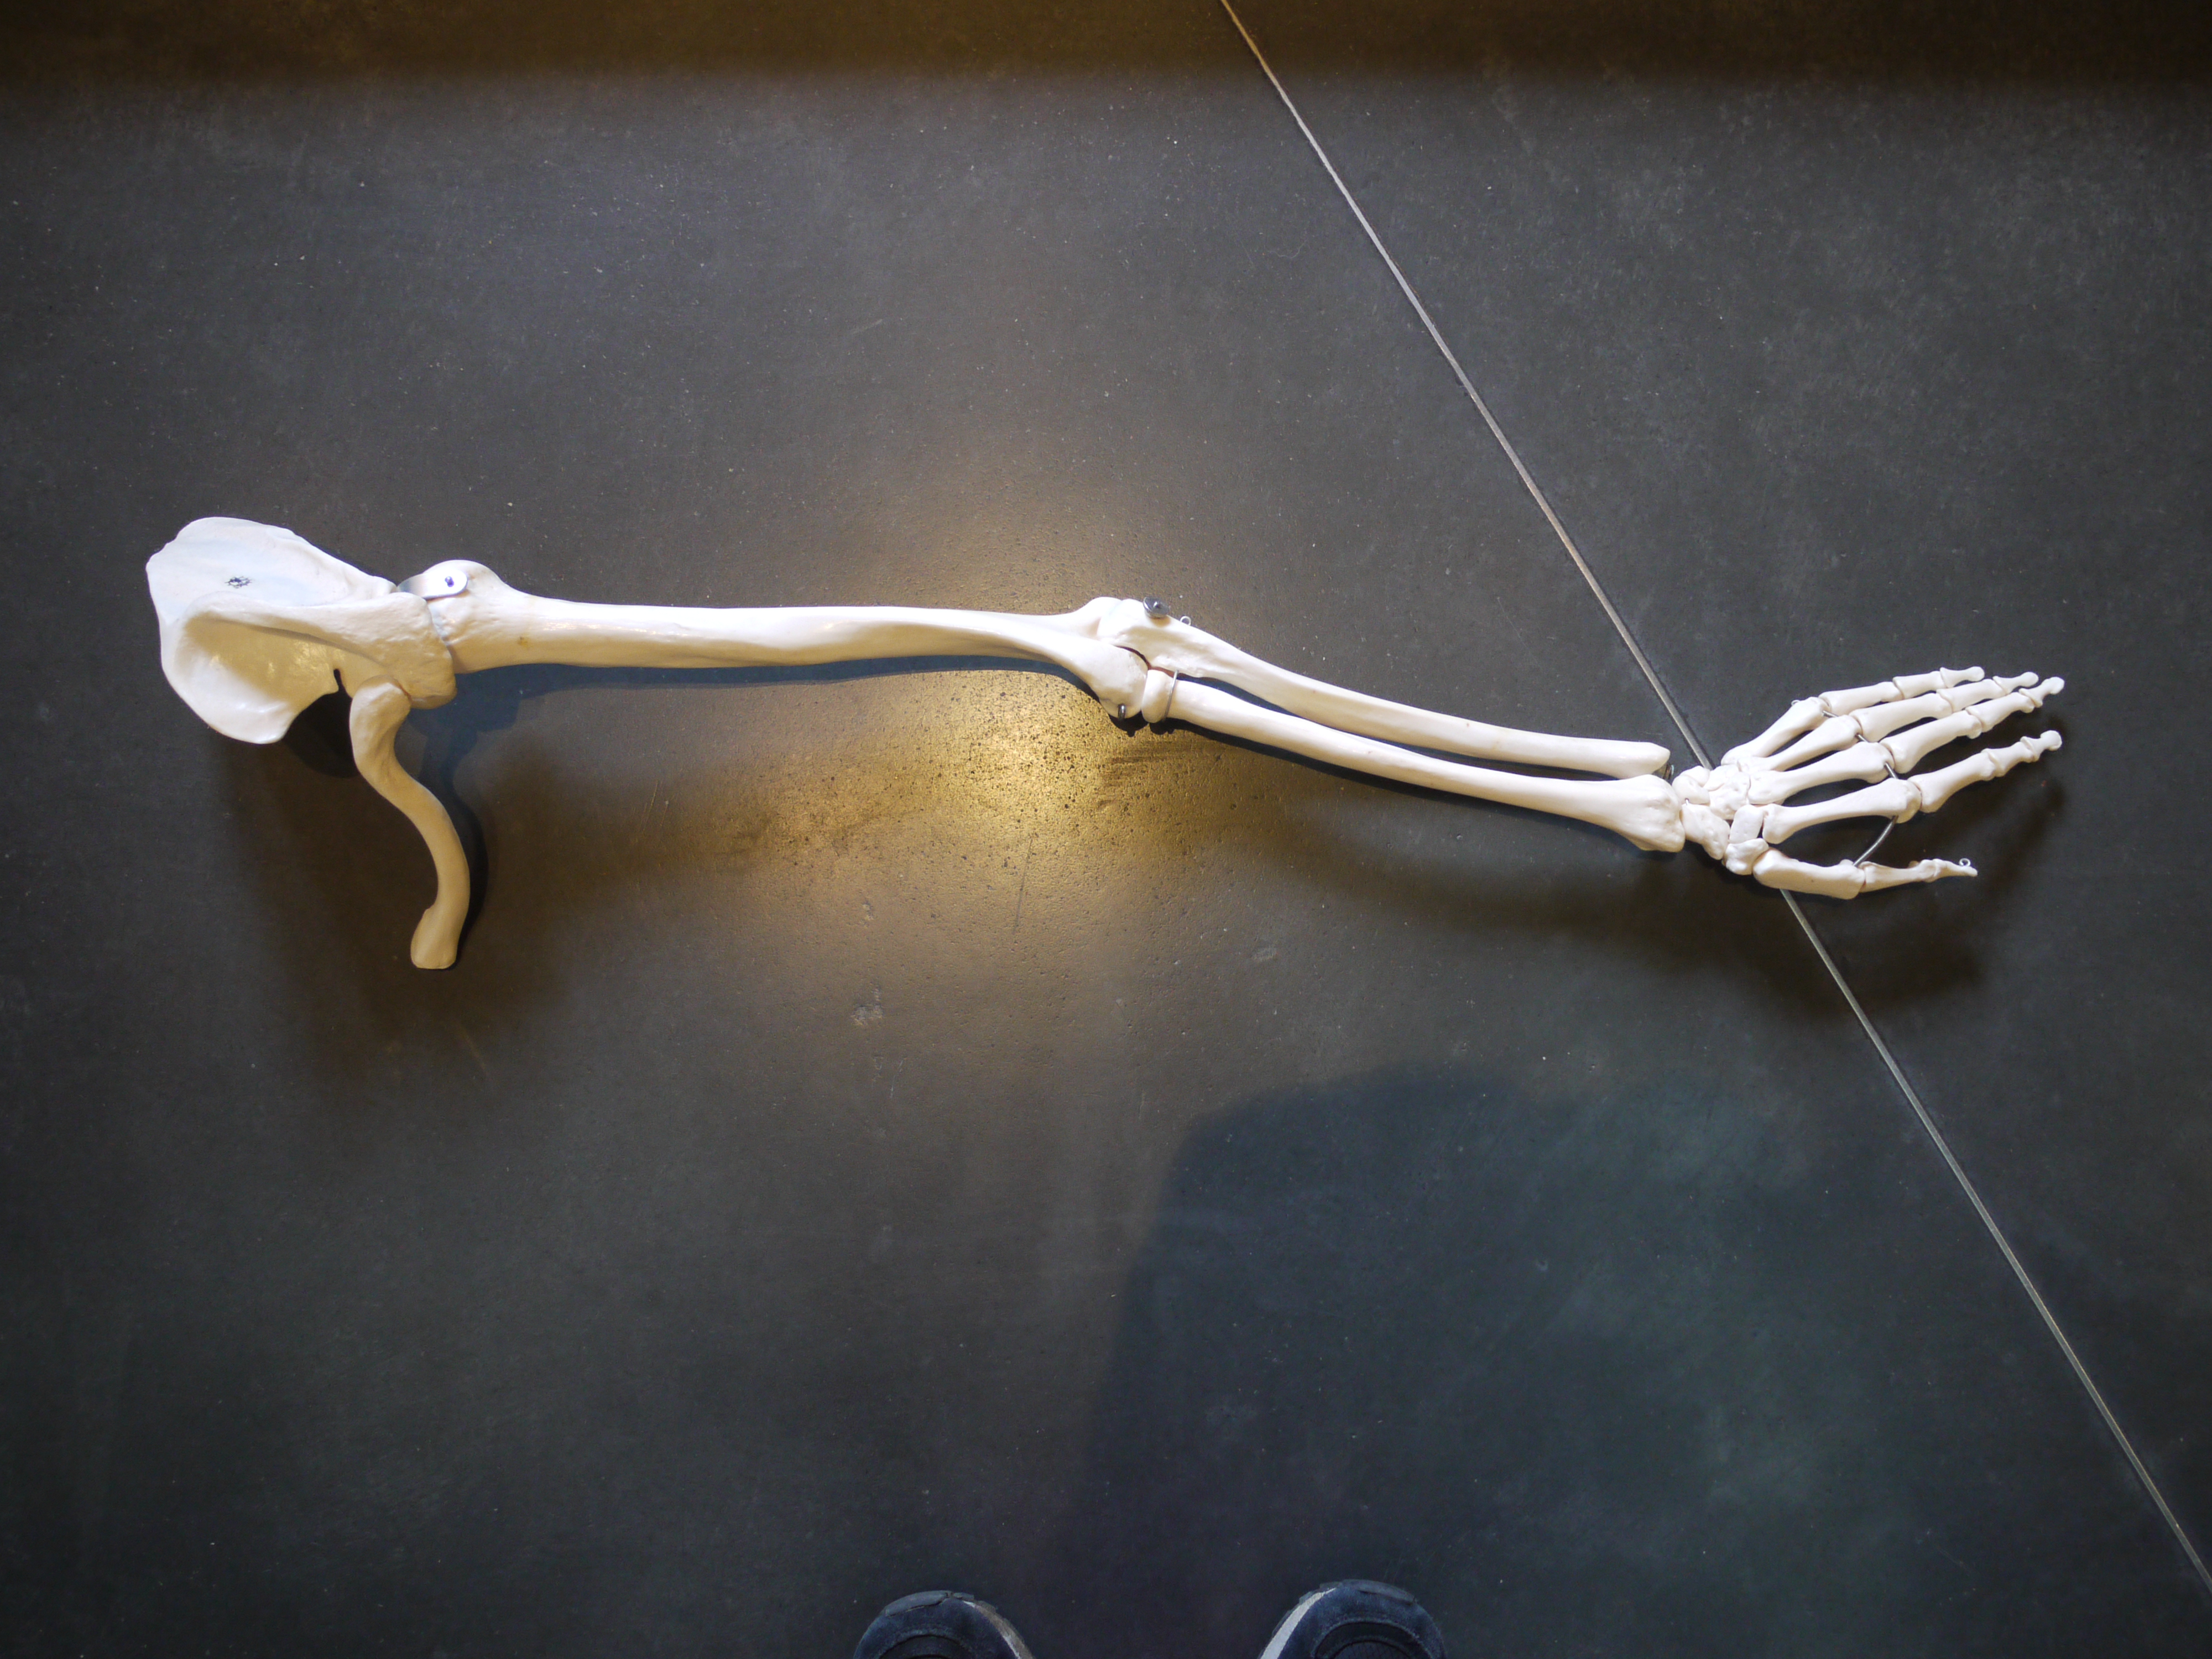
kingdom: Animalia
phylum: Chordata
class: Mammalia
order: Primates
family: Hominidae
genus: Homo
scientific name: Homo sapiens
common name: Human
